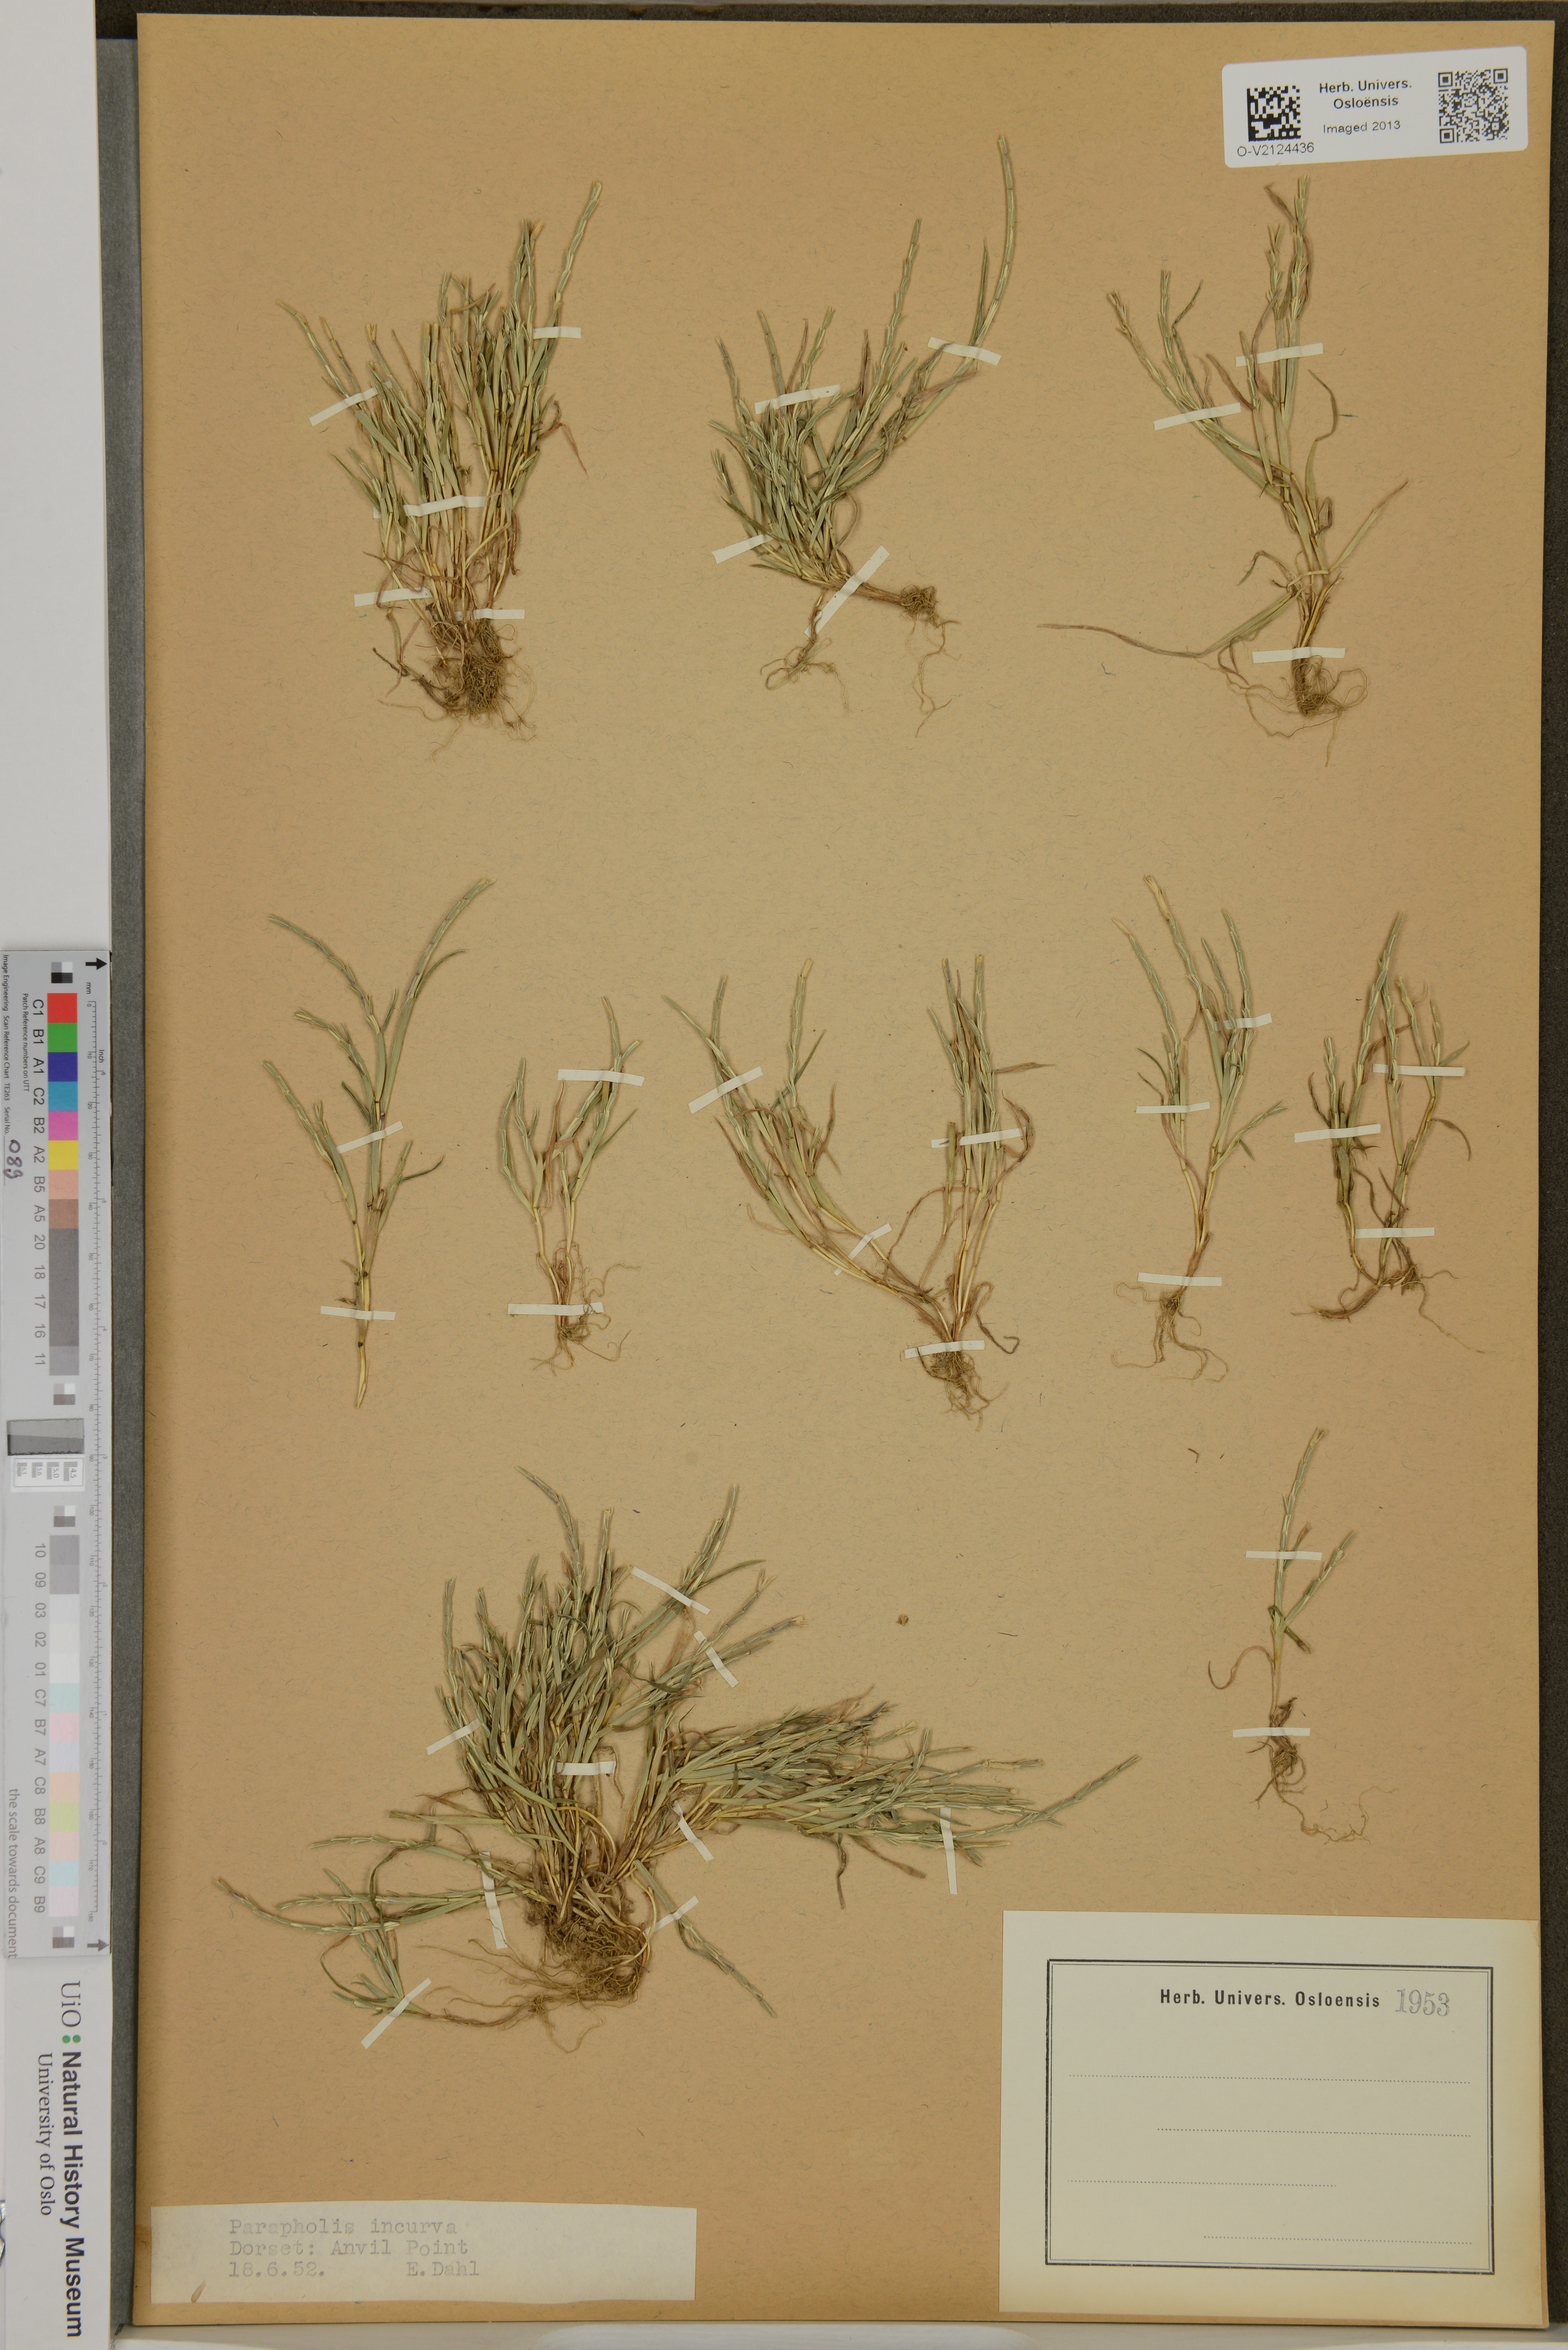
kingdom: Plantae
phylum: Tracheophyta
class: Liliopsida
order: Poales
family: Poaceae
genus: Parapholis
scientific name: Parapholis incurva
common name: Curved sicklegrass
